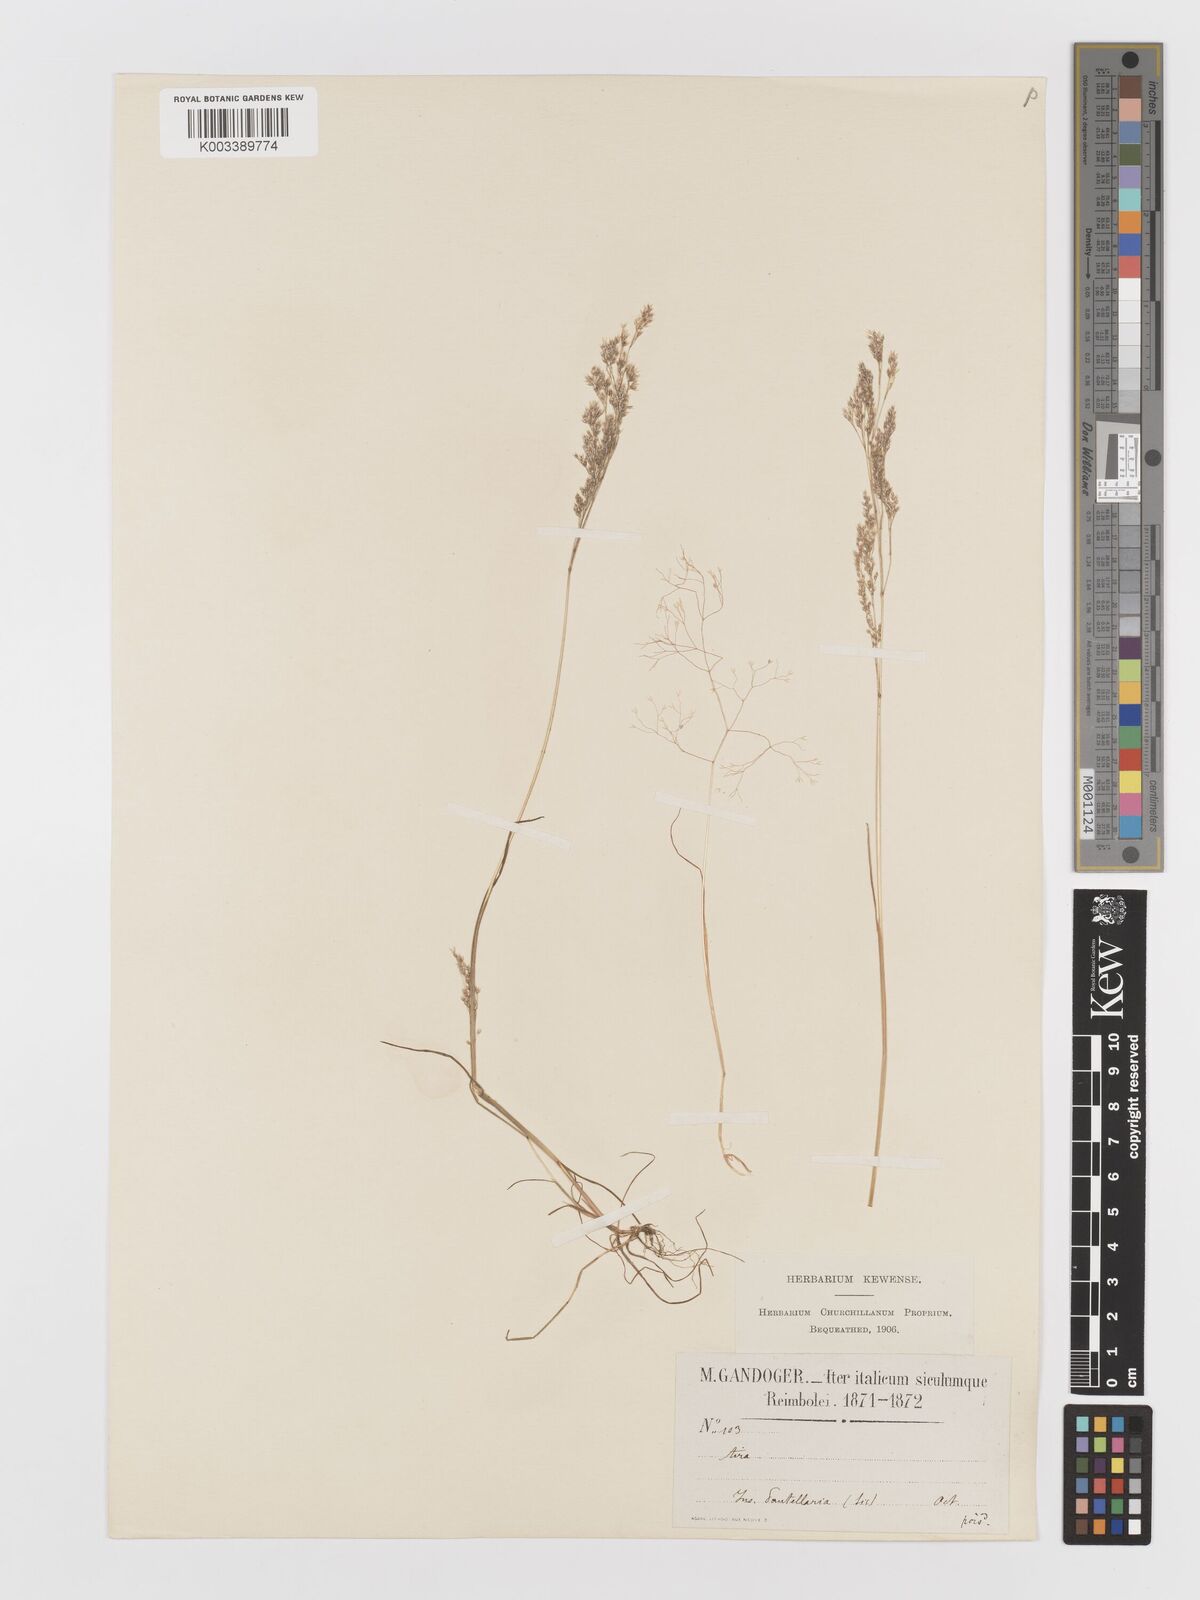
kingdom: Plantae
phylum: Tracheophyta
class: Liliopsida
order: Poales
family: Poaceae
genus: Aira
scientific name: Aira cupaniana
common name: Silver hairgrass
